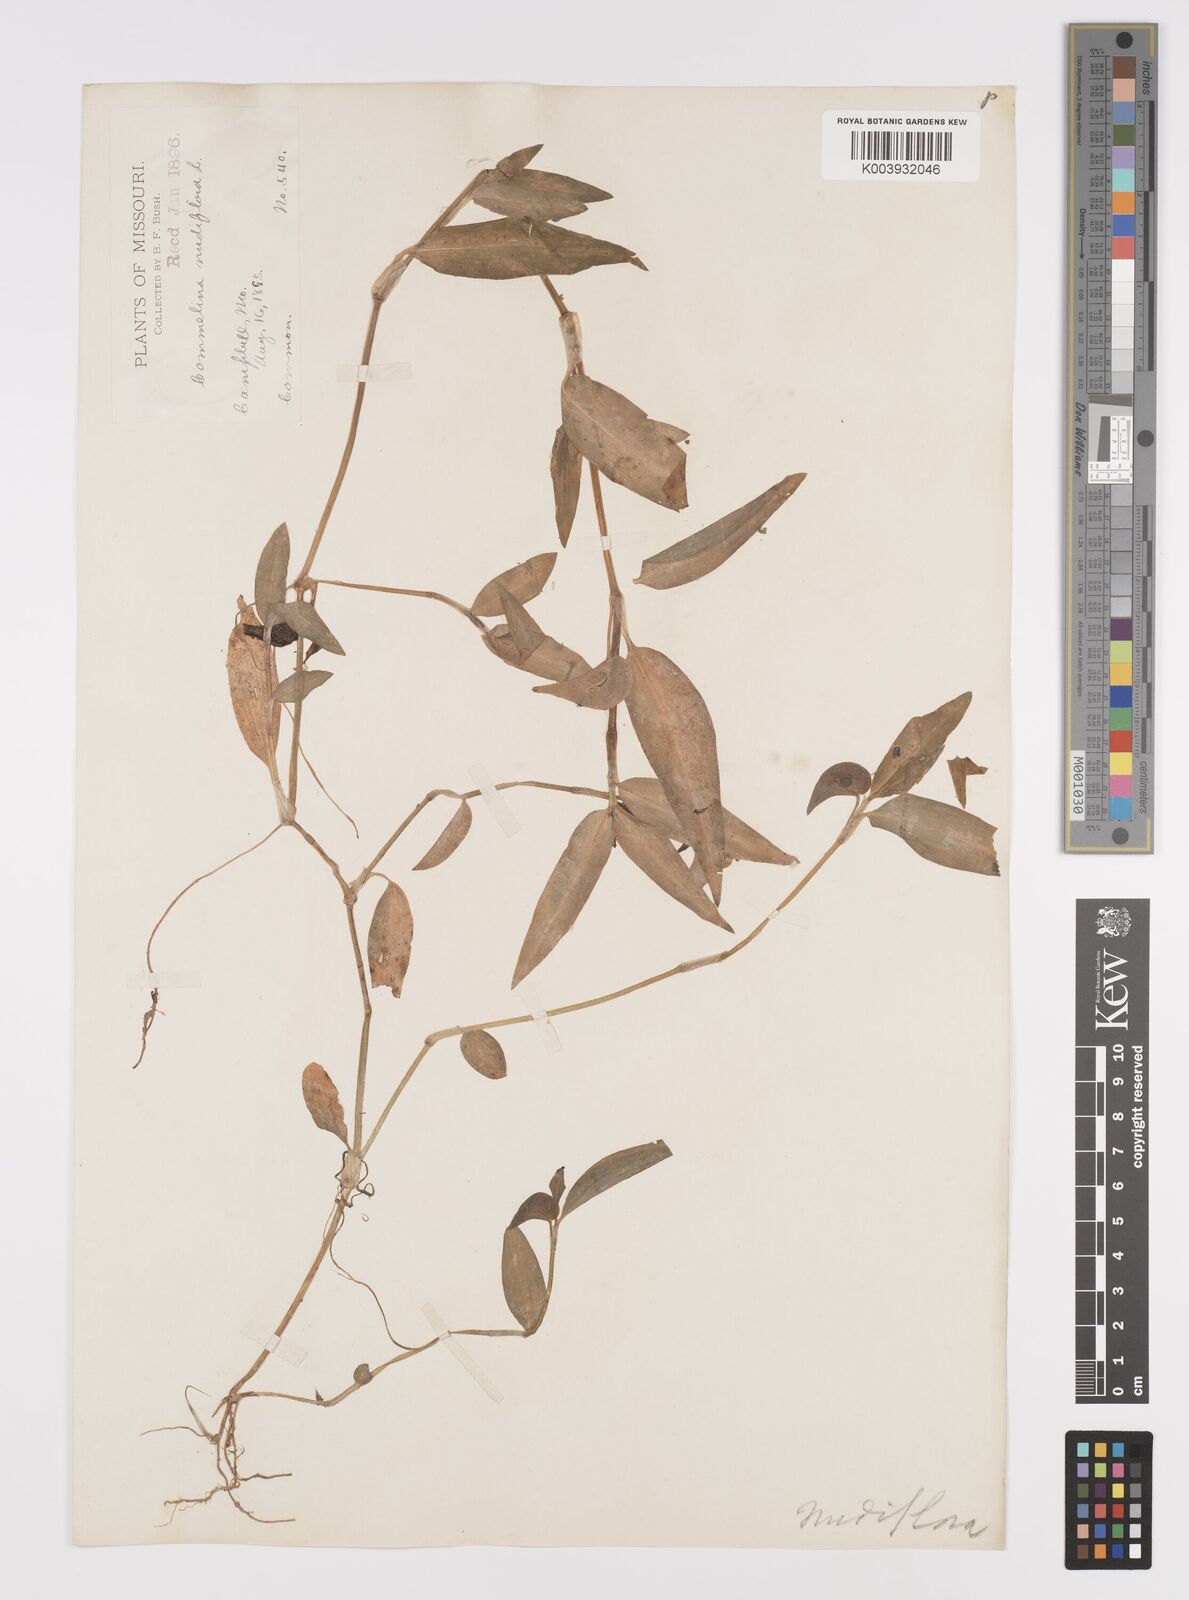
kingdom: Plantae
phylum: Tracheophyta
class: Liliopsida
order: Commelinales
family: Commelinaceae
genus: Murdannia
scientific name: Murdannia nudiflora
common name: Nakedstem dewflower
